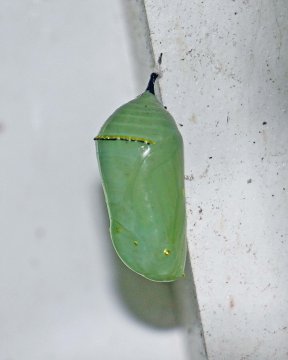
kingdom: Animalia
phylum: Arthropoda
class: Insecta
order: Lepidoptera
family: Nymphalidae
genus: Danaus
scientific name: Danaus plexippus
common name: Monarch
